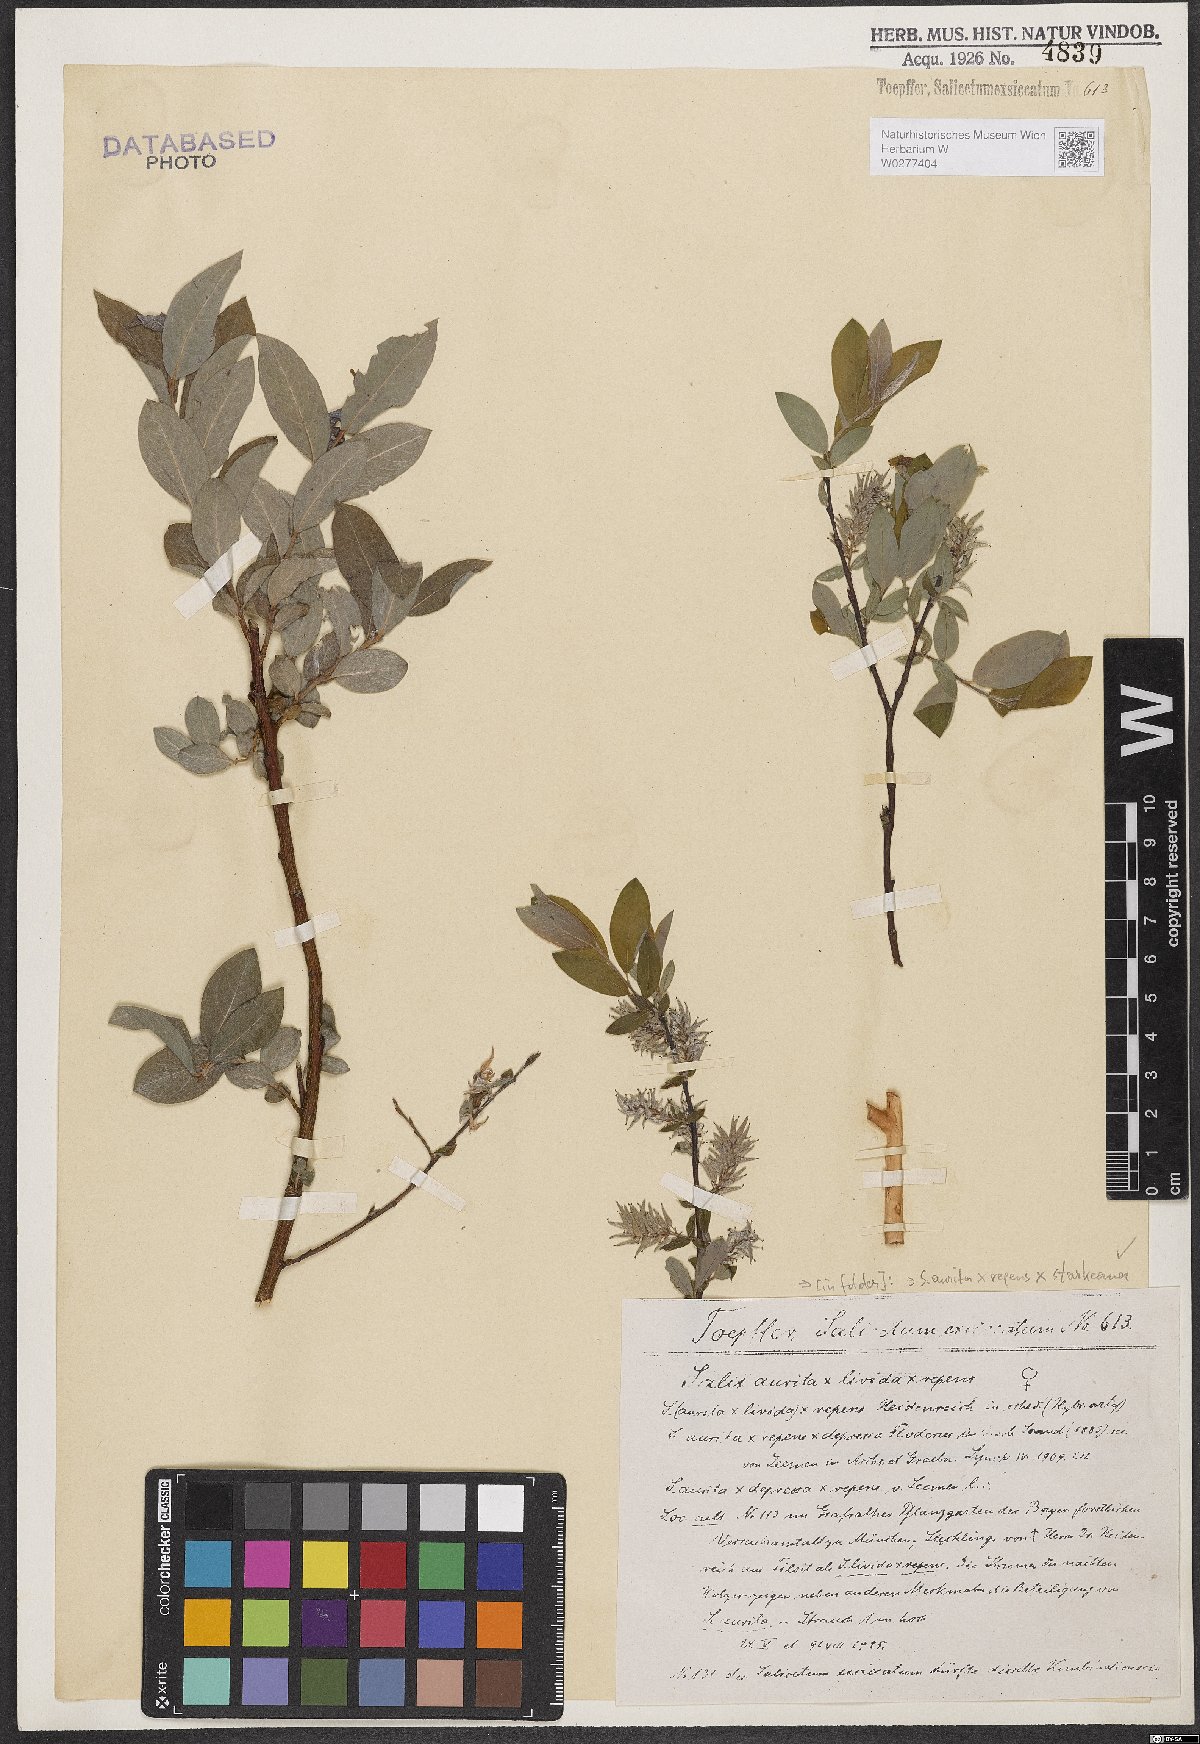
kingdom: Plantae
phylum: Tracheophyta
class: Magnoliopsida
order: Malpighiales
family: Salicaceae
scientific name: Salicaceae
